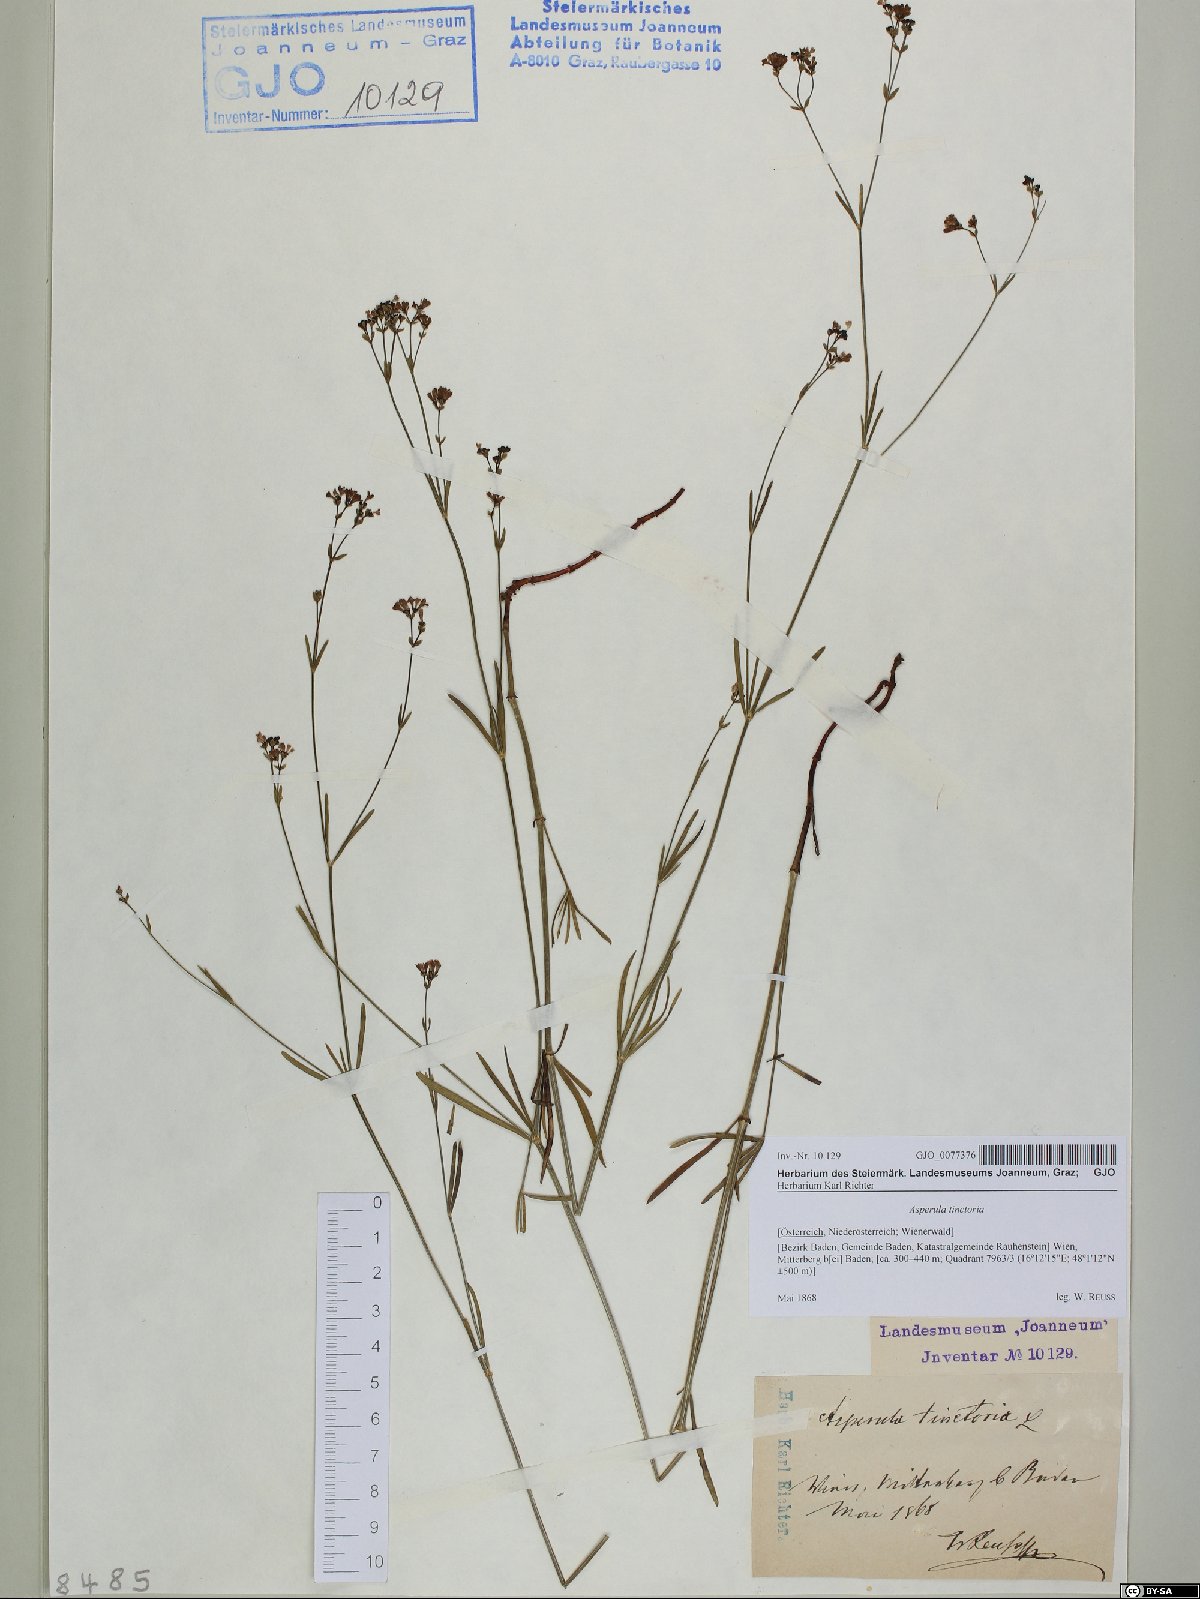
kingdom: Plantae
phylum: Tracheophyta
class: Magnoliopsida
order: Gentianales
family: Rubiaceae
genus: Asperula
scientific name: Asperula tinctoria
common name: Dyer's woodruff
